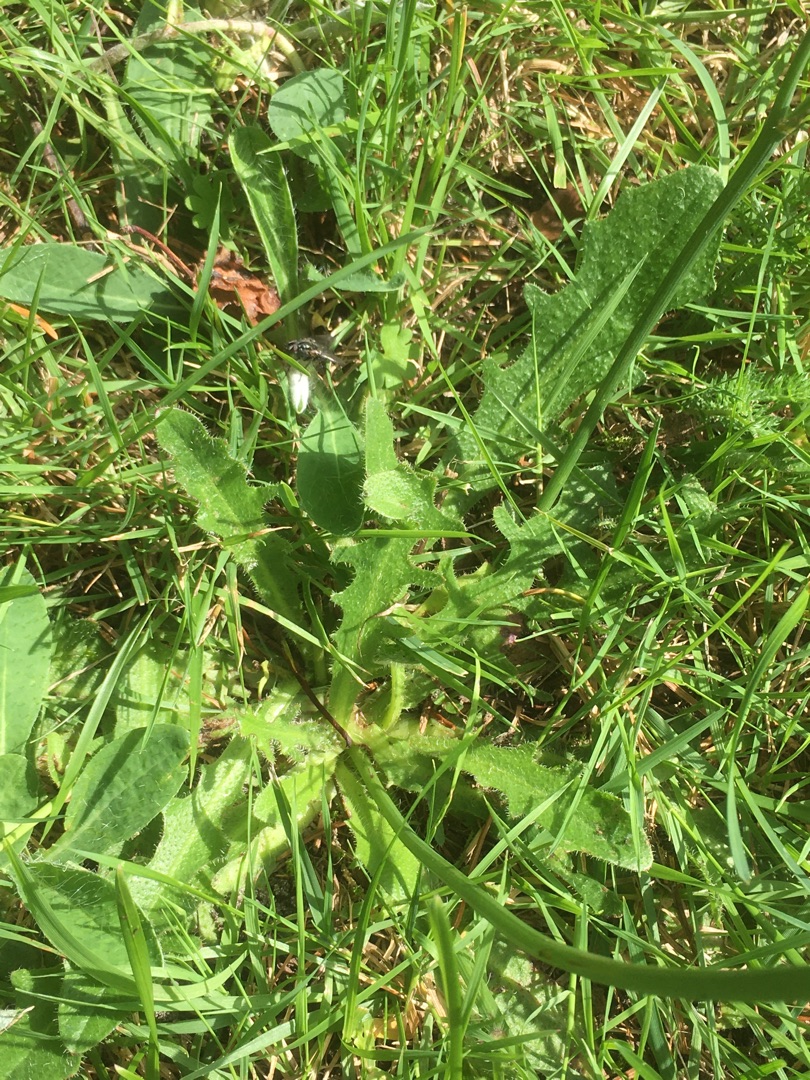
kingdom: Plantae
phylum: Tracheophyta
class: Magnoliopsida
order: Asterales
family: Asteraceae
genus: Hypochaeris
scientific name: Hypochaeris radicata
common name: Almindelig kongepen
